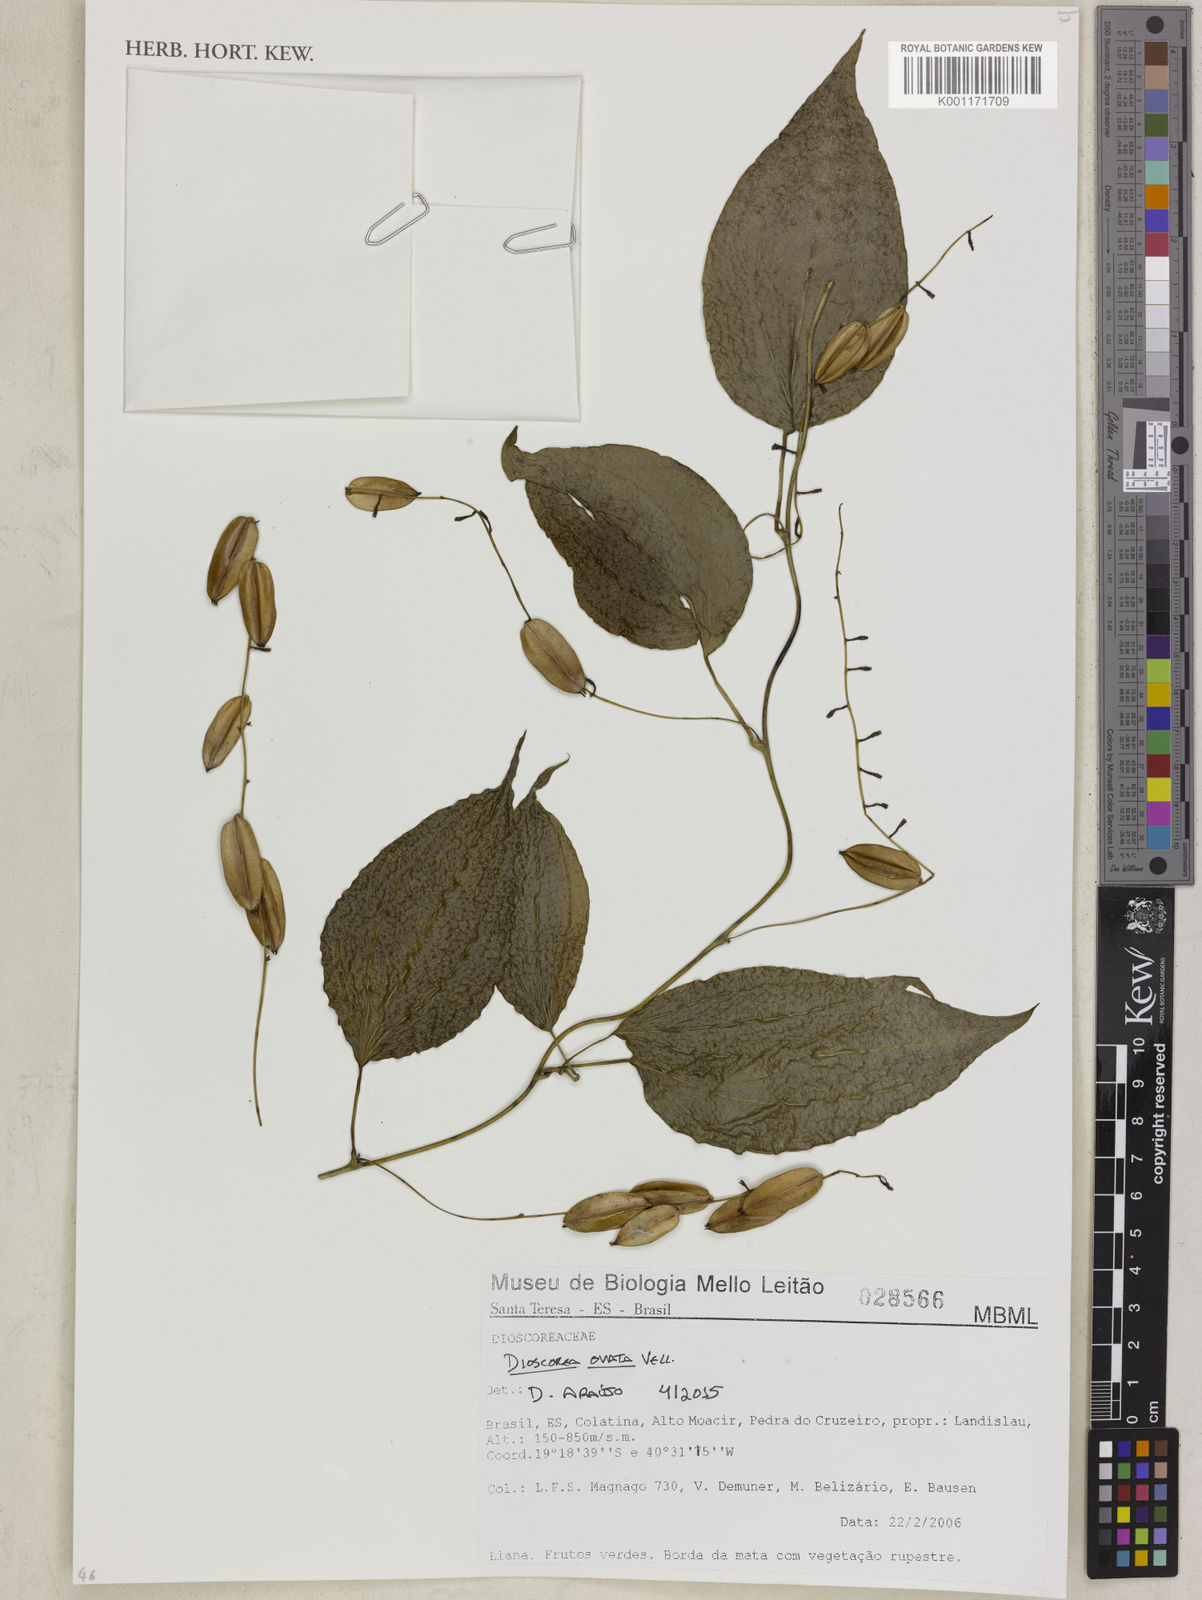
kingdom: Plantae
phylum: Tracheophyta
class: Liliopsida
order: Dioscoreales
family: Dioscoreaceae
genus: Dioscorea
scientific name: Dioscorea ovata
